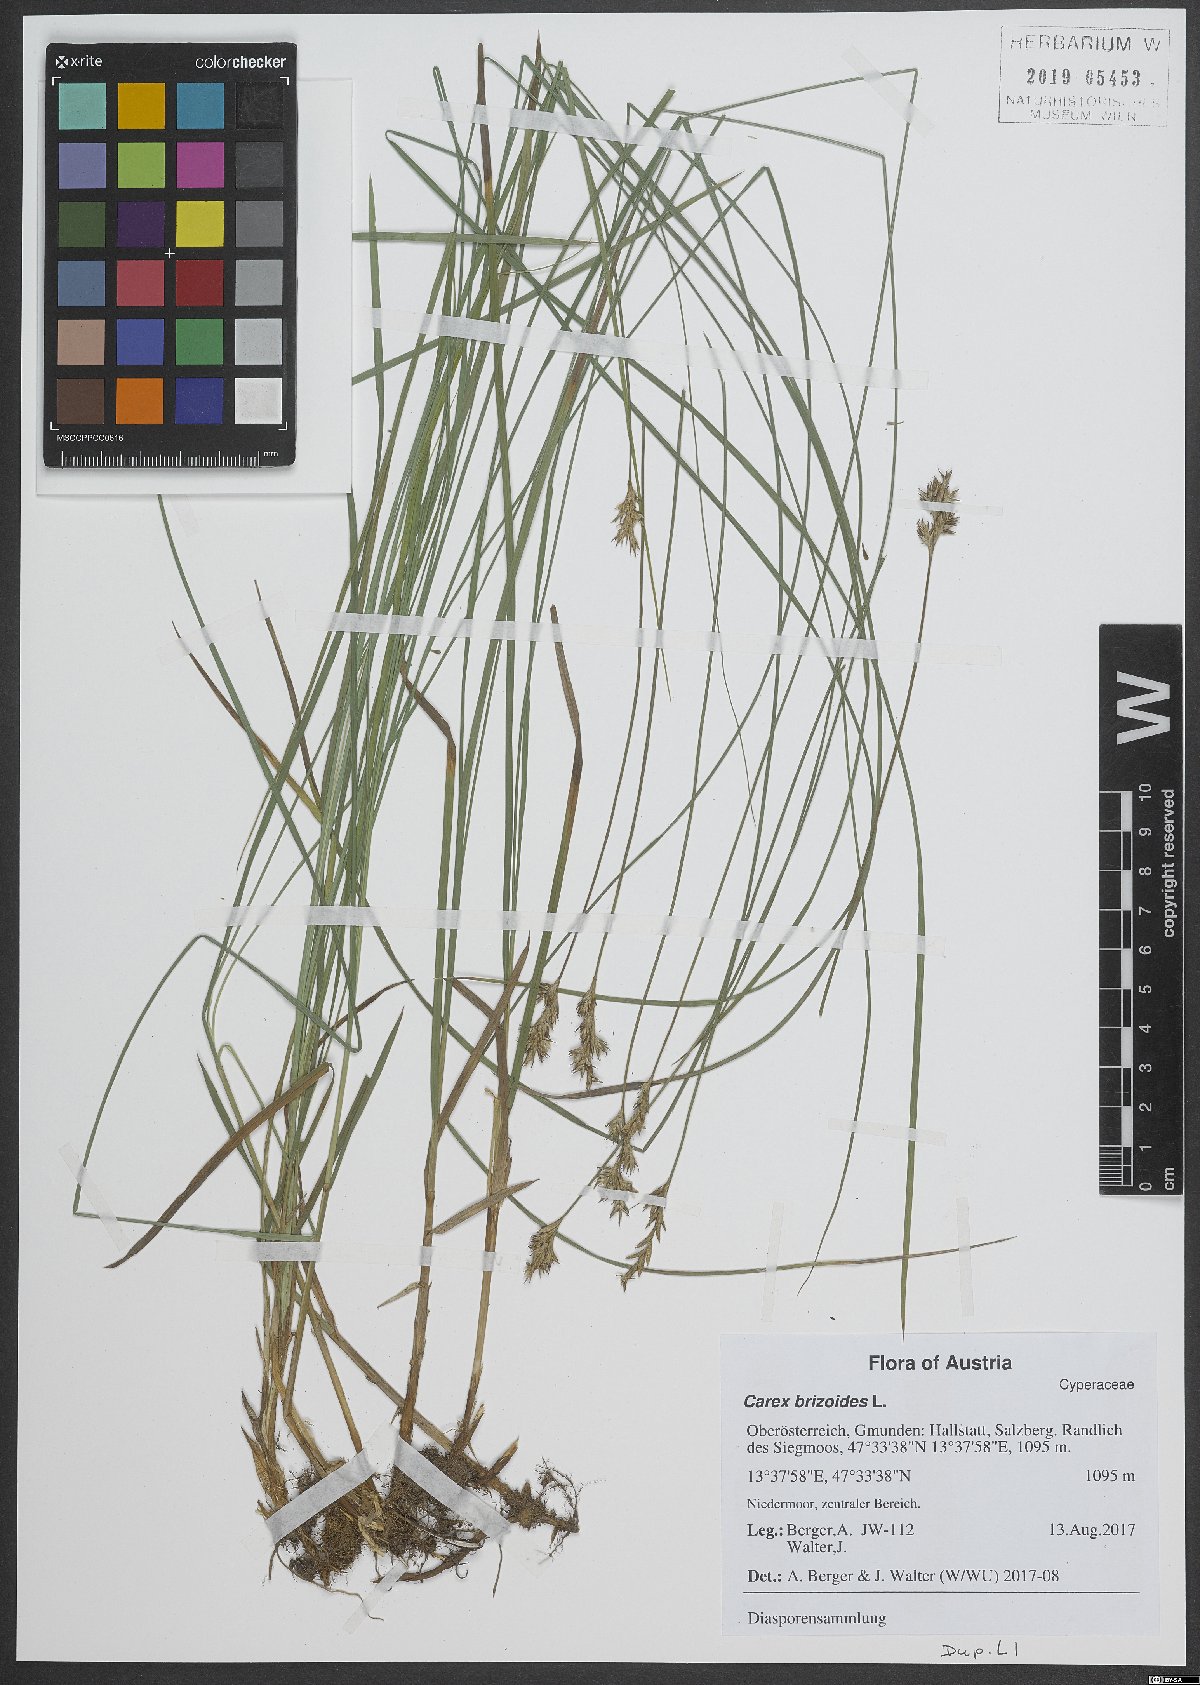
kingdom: Plantae
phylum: Tracheophyta
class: Liliopsida
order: Poales
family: Cyperaceae
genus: Carex
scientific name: Carex brizoides
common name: Quaking-grass sedge
